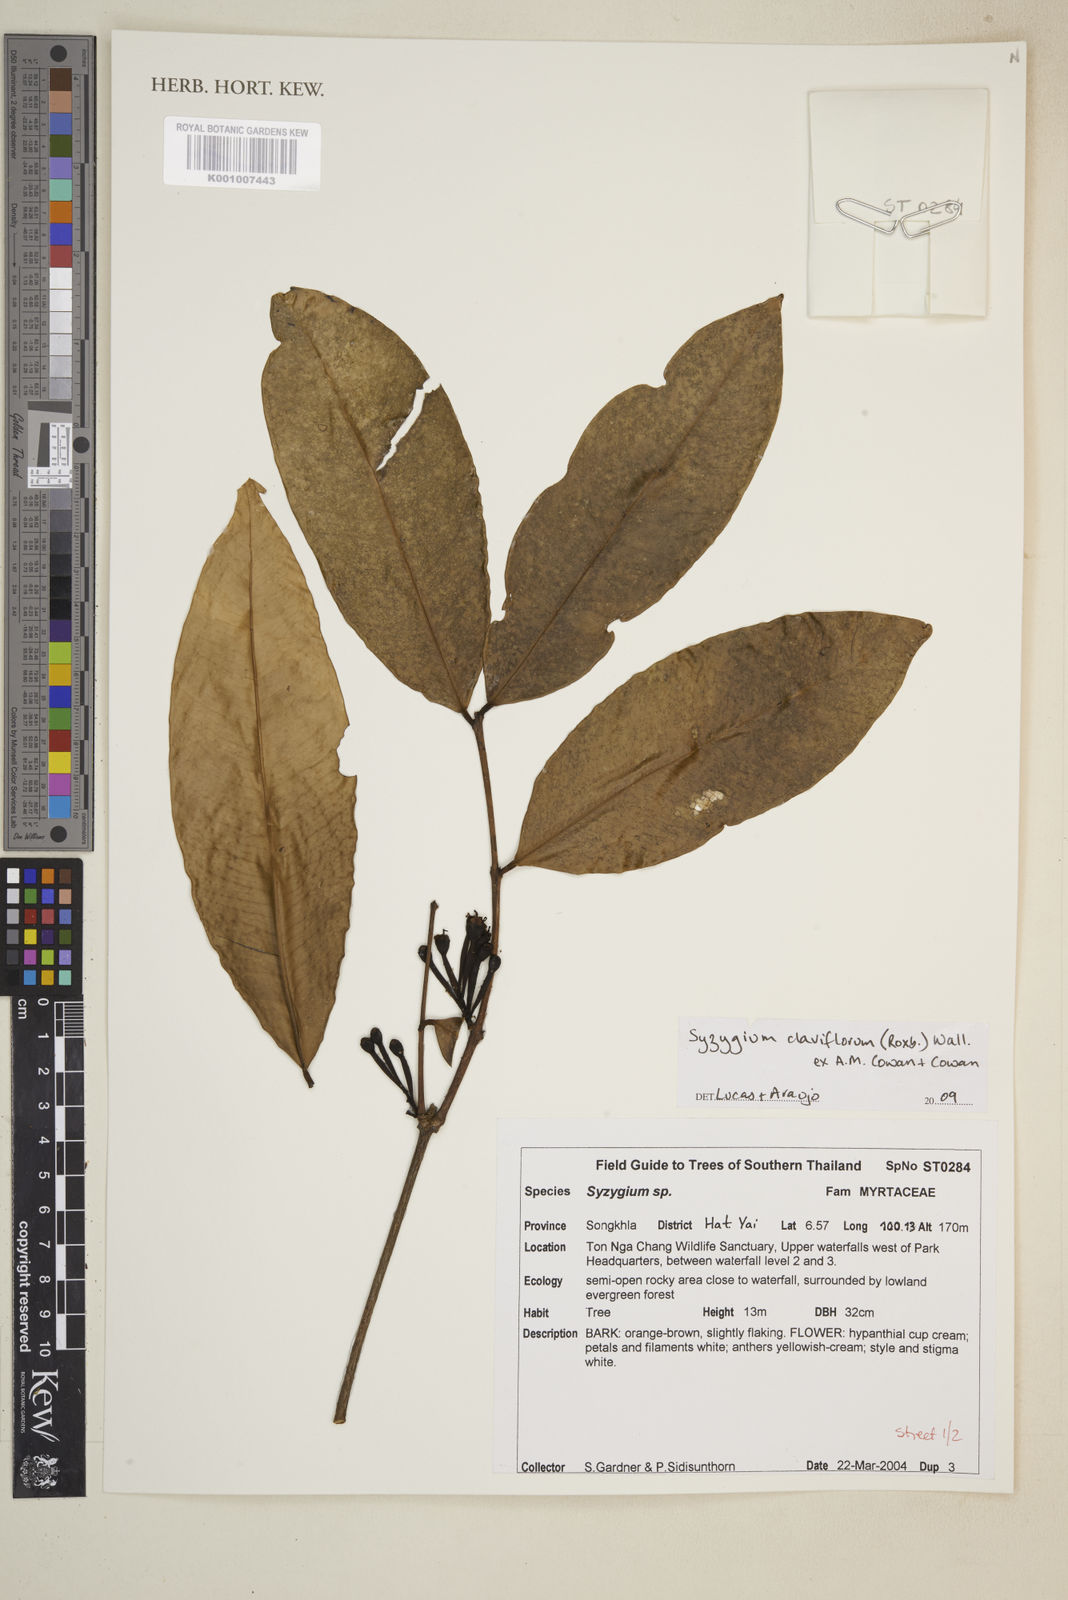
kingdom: Plantae
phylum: Tracheophyta
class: Magnoliopsida
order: Myrtales
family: Myrtaceae
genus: Syzygium
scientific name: Syzygium claviflorum
